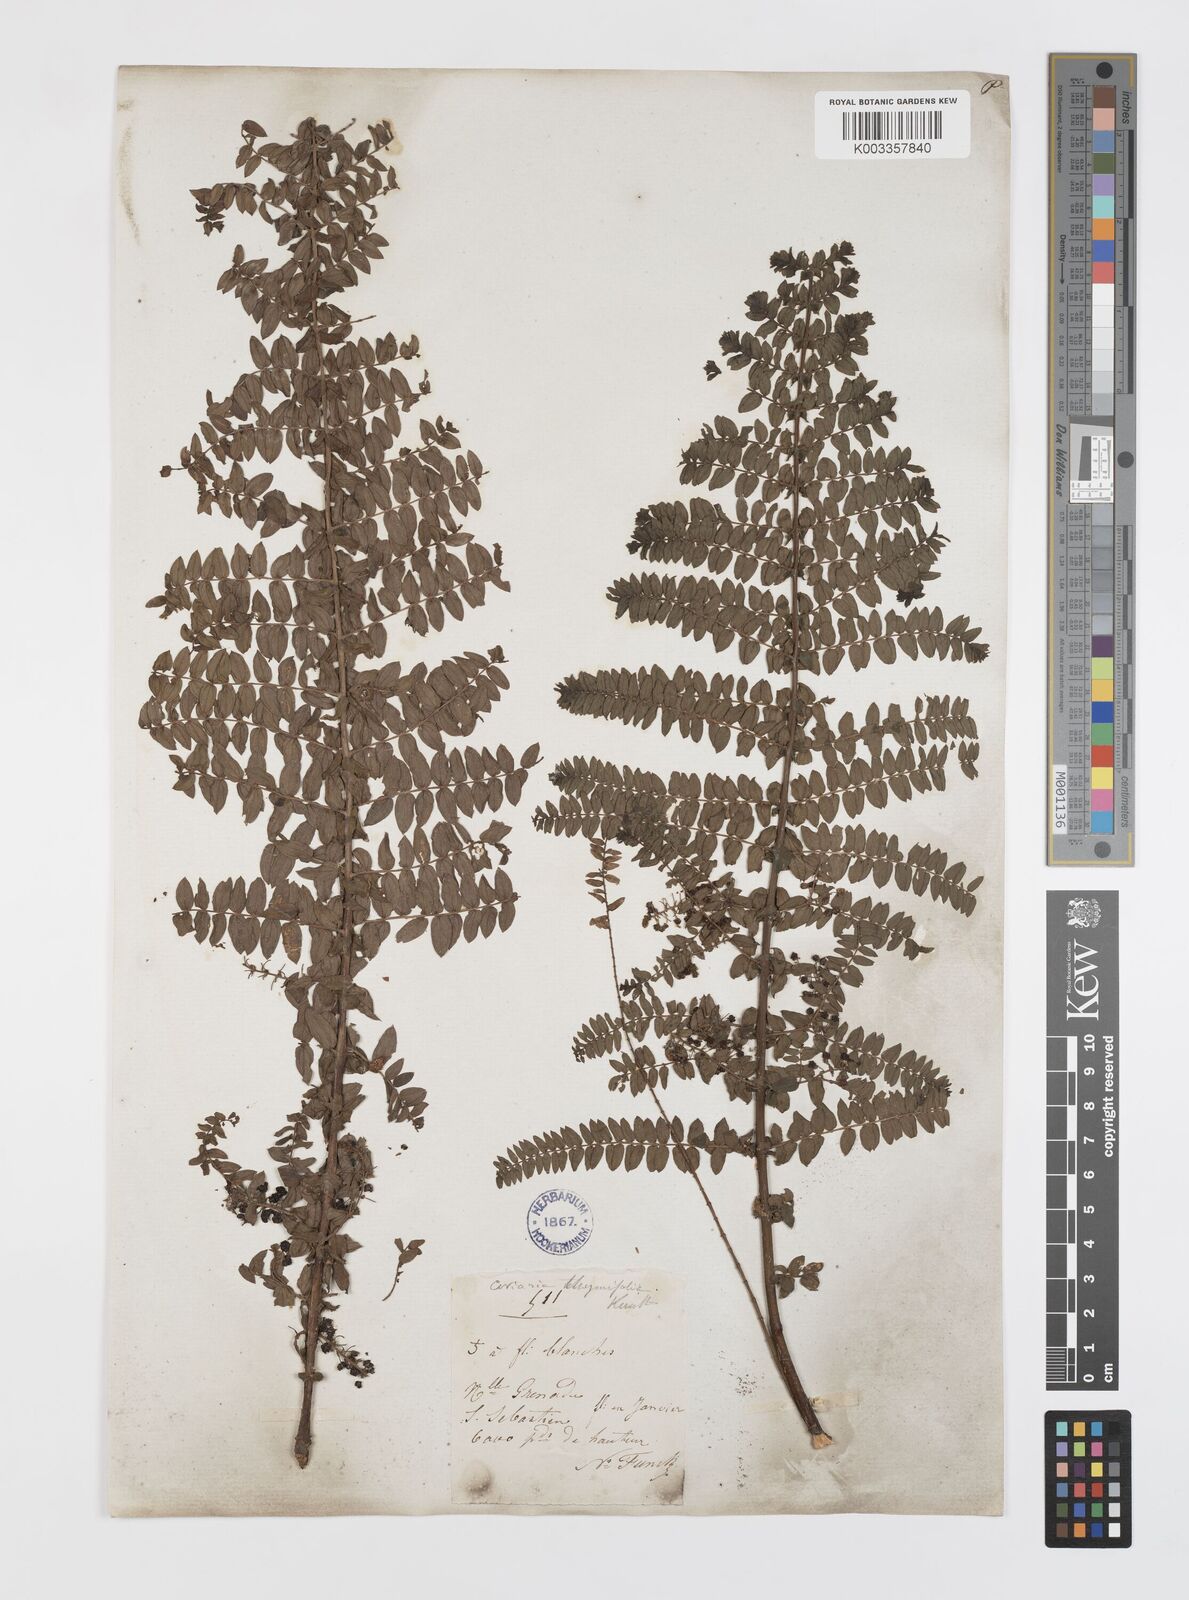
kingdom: Plantae
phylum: Tracheophyta
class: Magnoliopsida
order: Cucurbitales
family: Coriariaceae
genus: Coriaria
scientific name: Coriaria microphylla
